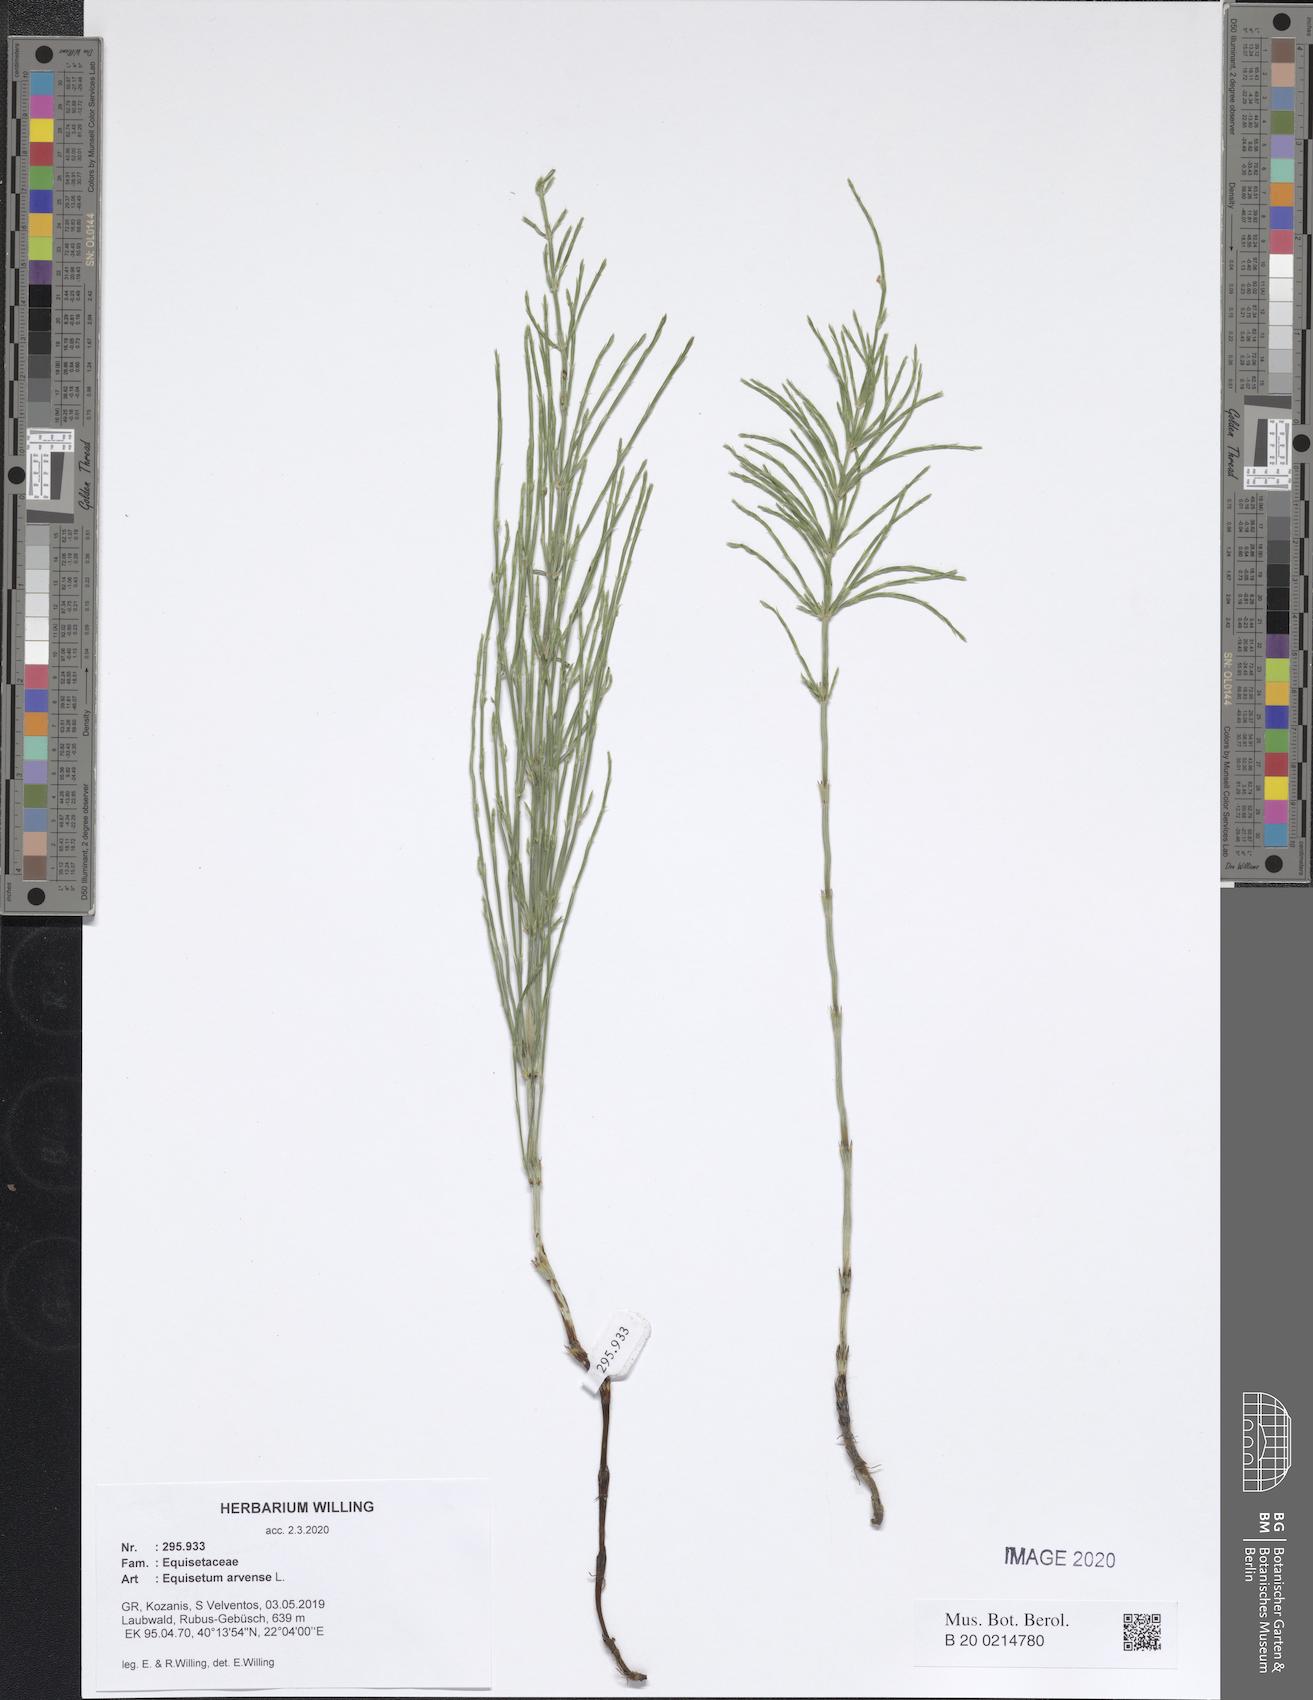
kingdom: Plantae
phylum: Tracheophyta
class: Polypodiopsida
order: Equisetales
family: Equisetaceae
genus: Equisetum
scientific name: Equisetum arvense
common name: Field horsetail
